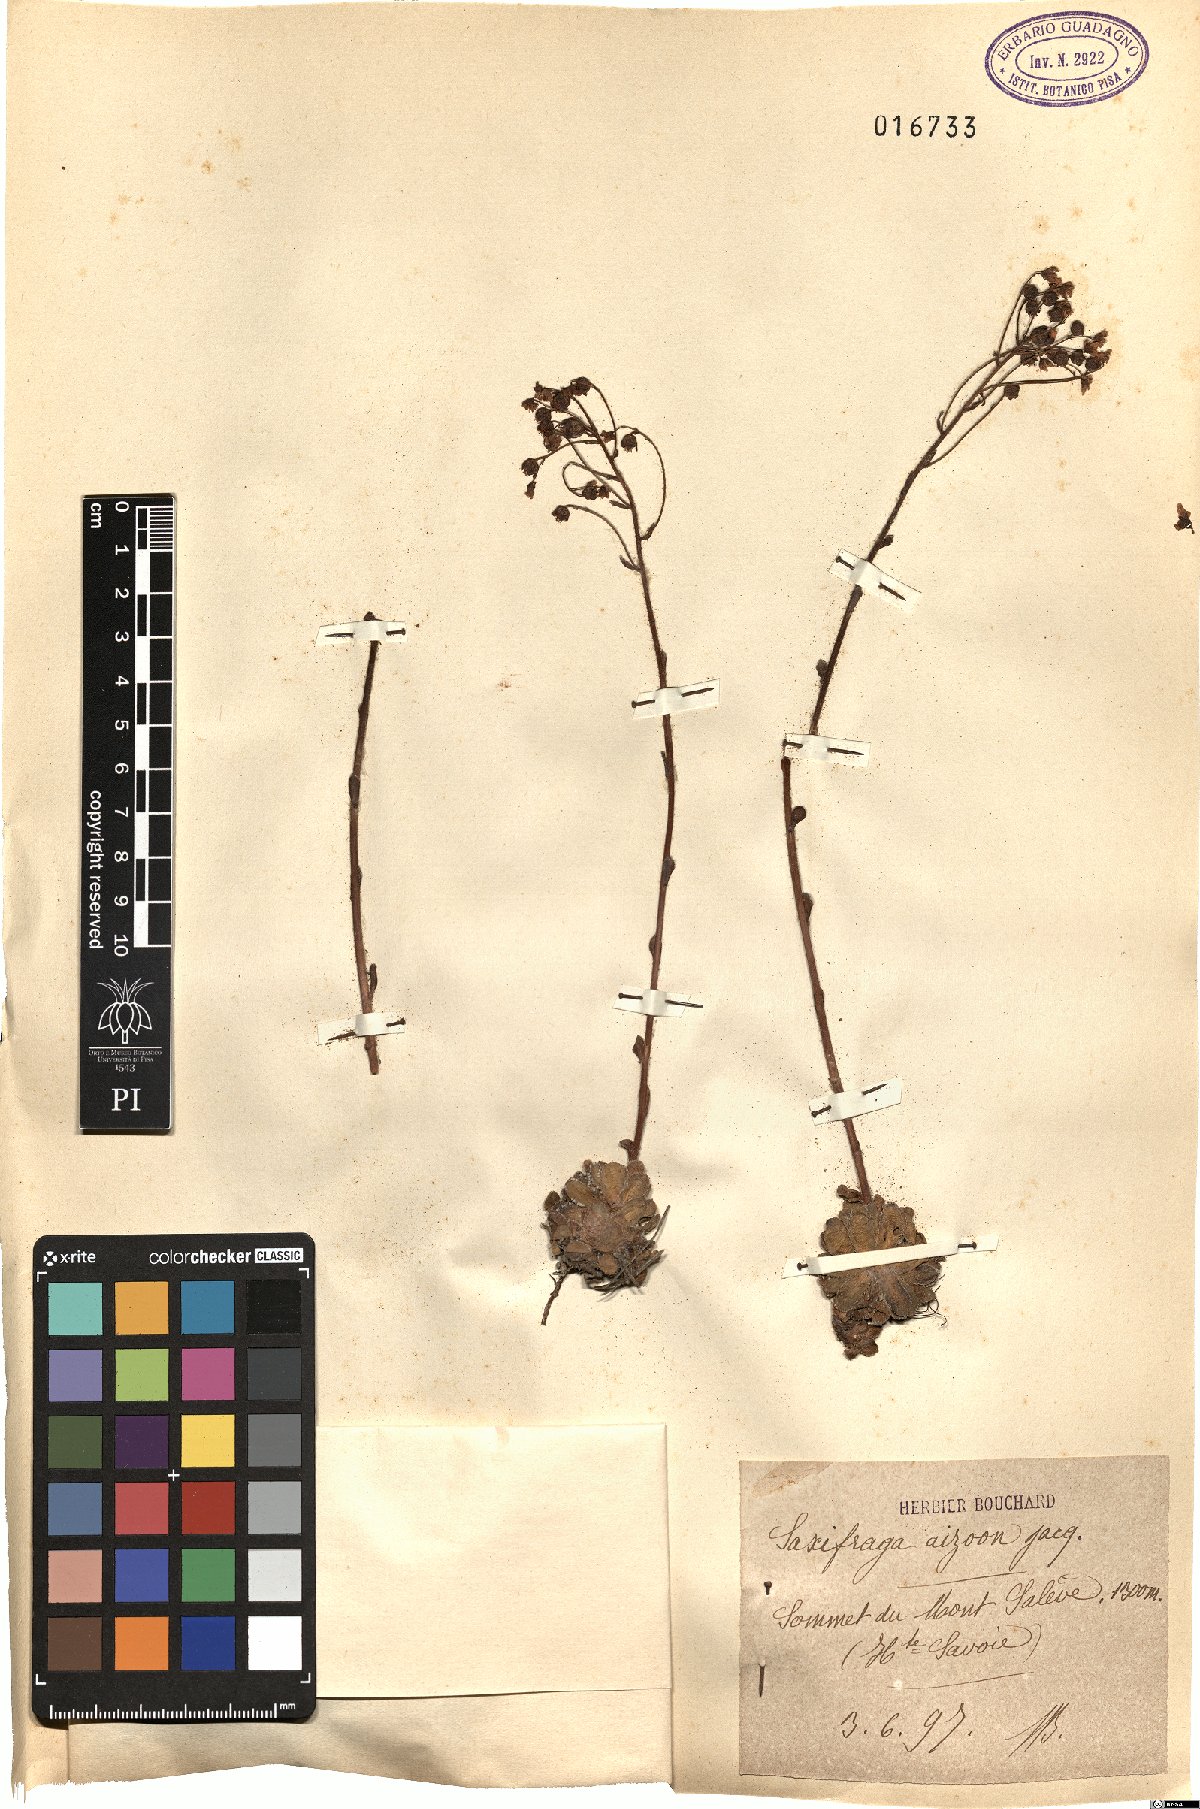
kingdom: Plantae
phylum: Tracheophyta
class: Magnoliopsida
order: Saxifragales
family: Saxifragaceae
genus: Saxifraga
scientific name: Saxifraga paniculata
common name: Livelong saxifrage
